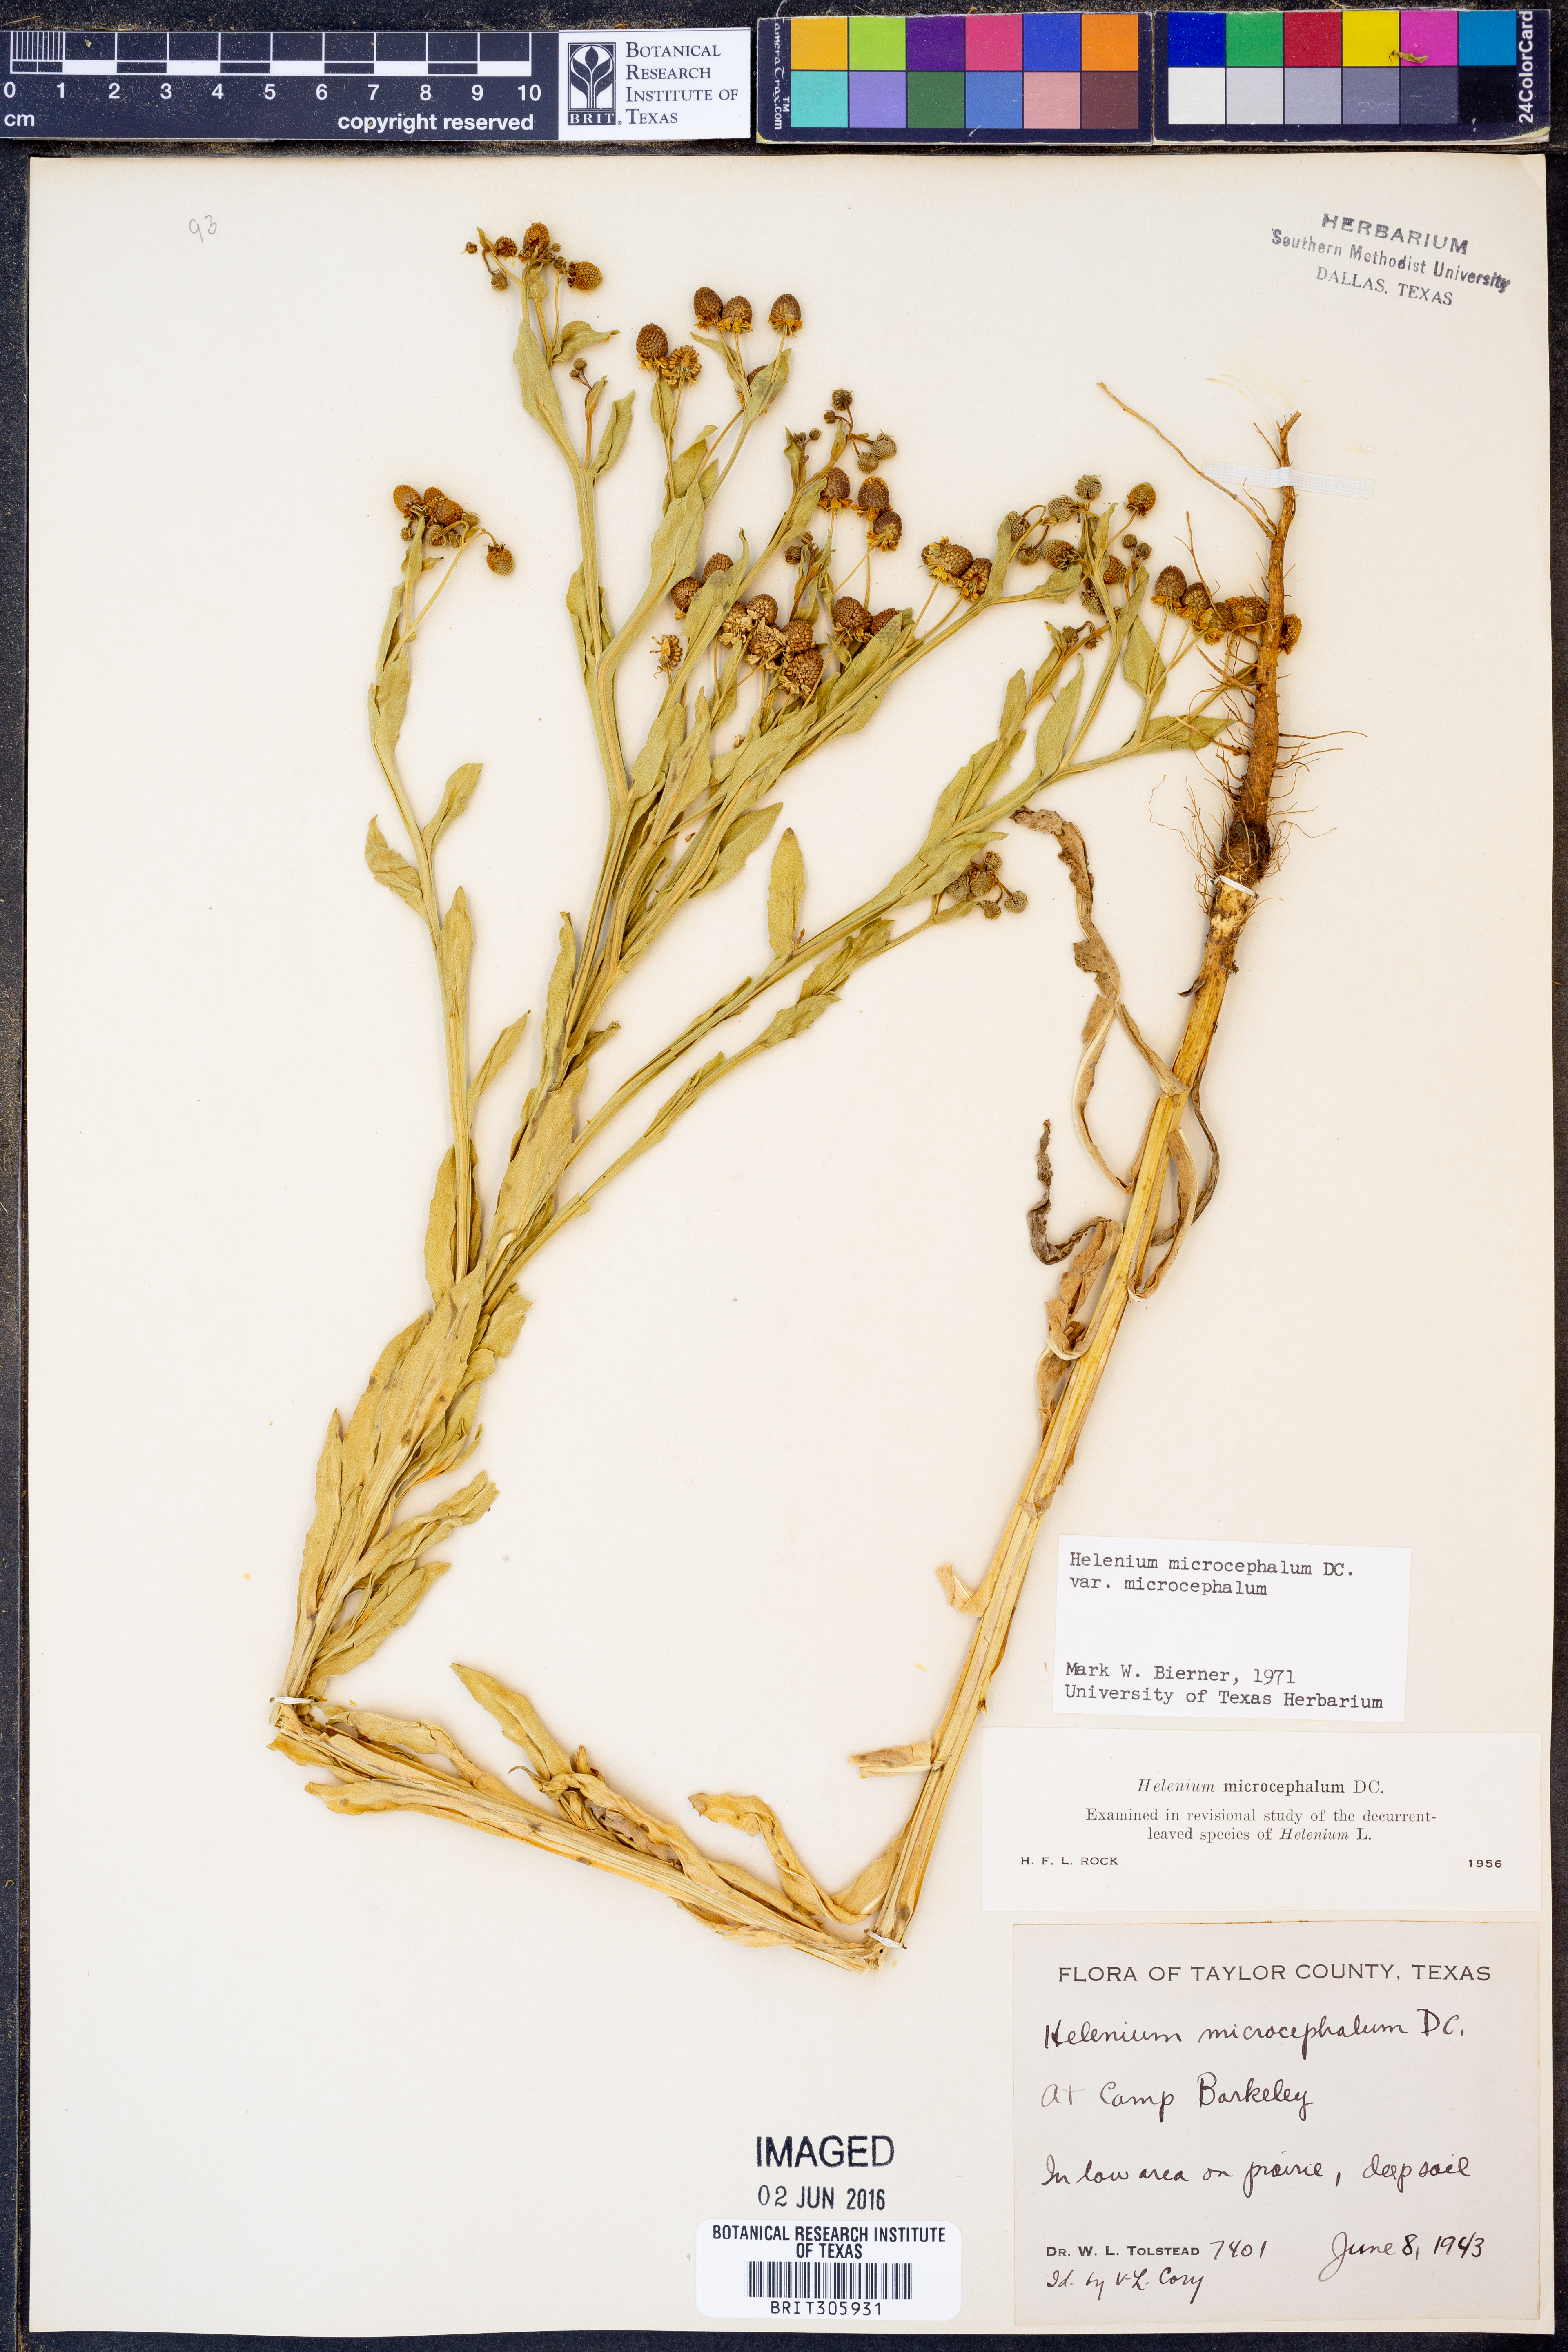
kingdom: Plantae
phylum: Tracheophyta
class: Magnoliopsida
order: Asterales
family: Asteraceae
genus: Helenium
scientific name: Helenium microcephalum
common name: Smallhead sneezeweed
